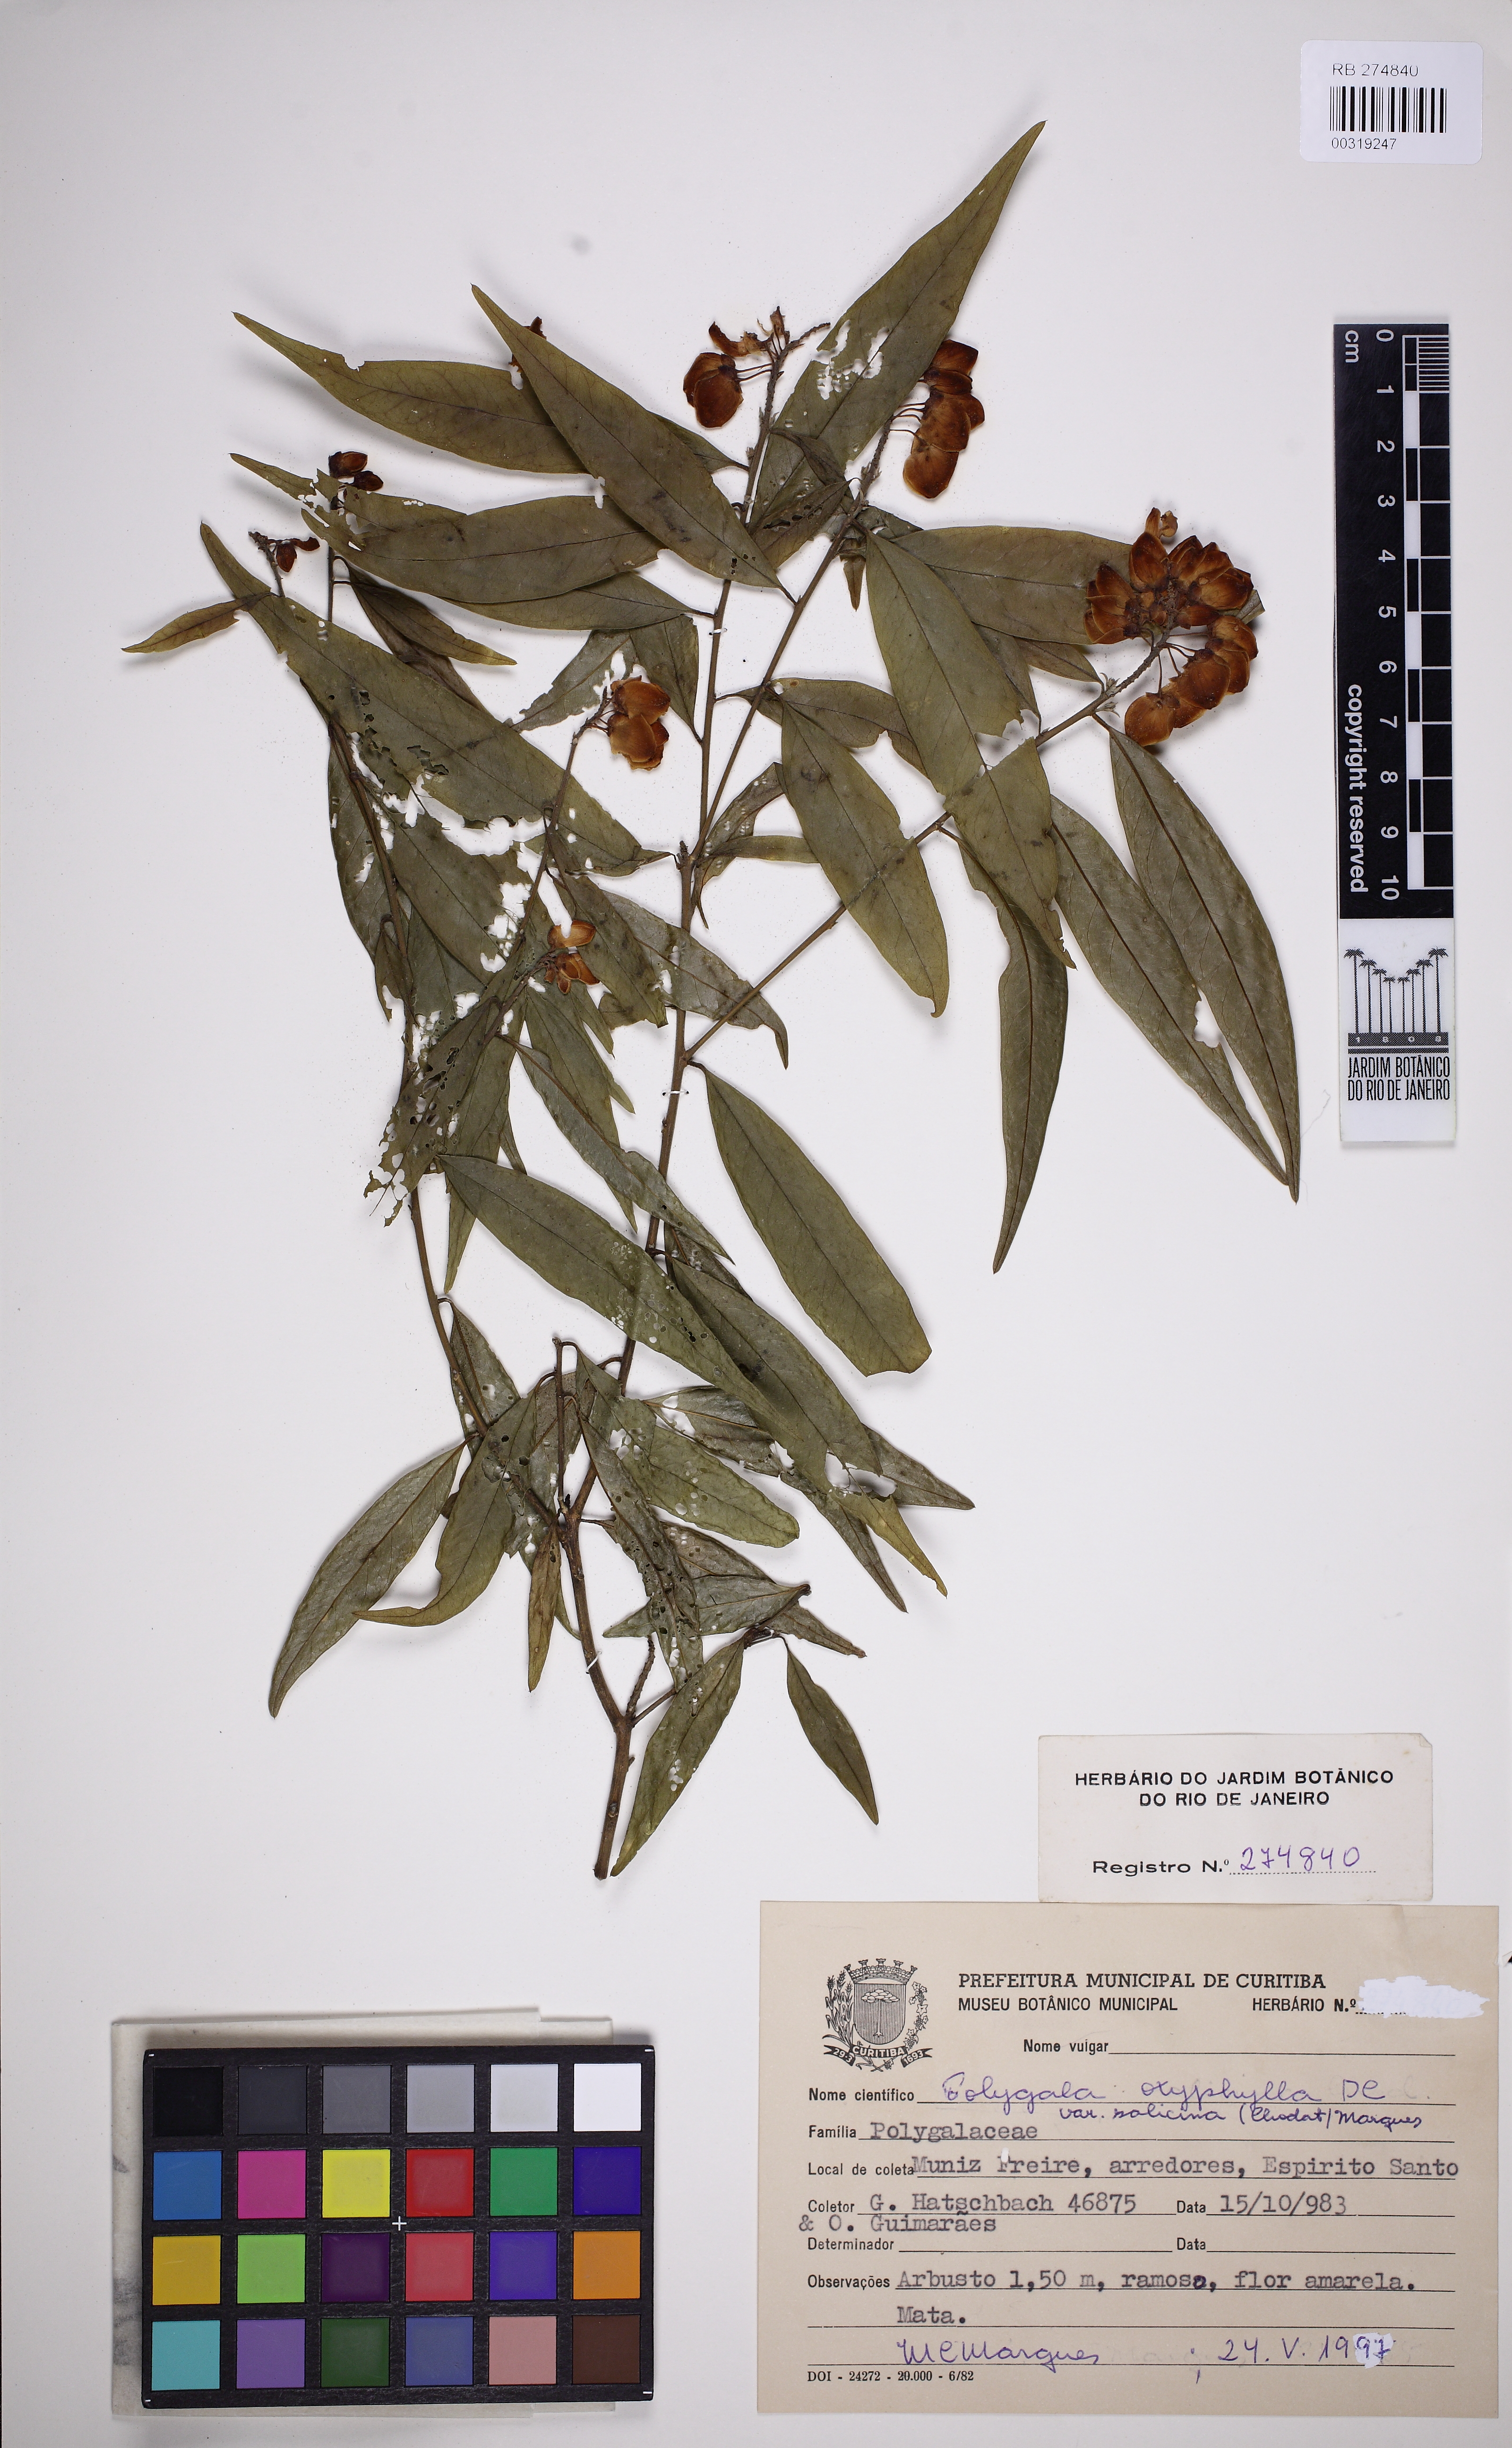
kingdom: Plantae
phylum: Tracheophyta
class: Magnoliopsida
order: Fabales
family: Polygalaceae
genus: Caamembeca
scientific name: Caamembeca
